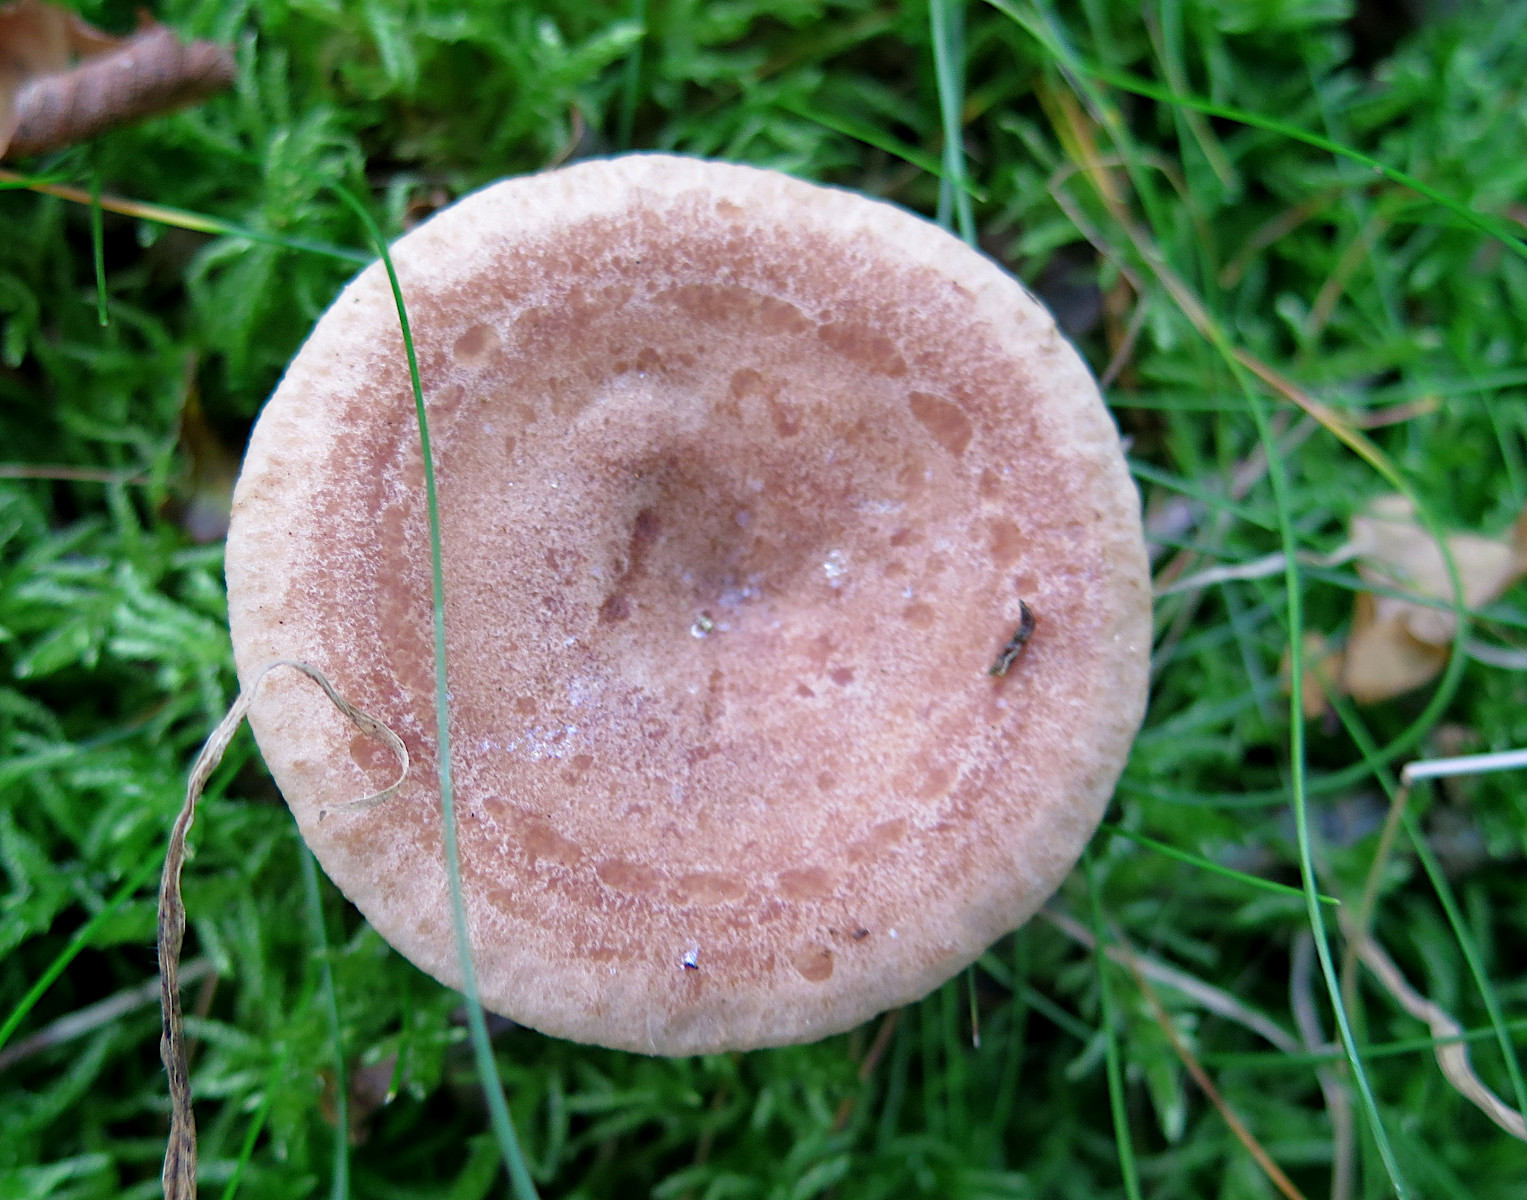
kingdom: Fungi
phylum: Basidiomycota
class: Agaricomycetes
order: Russulales
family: Russulaceae
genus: Lactarius
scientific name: Lactarius quietus
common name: ege-mælkehat
